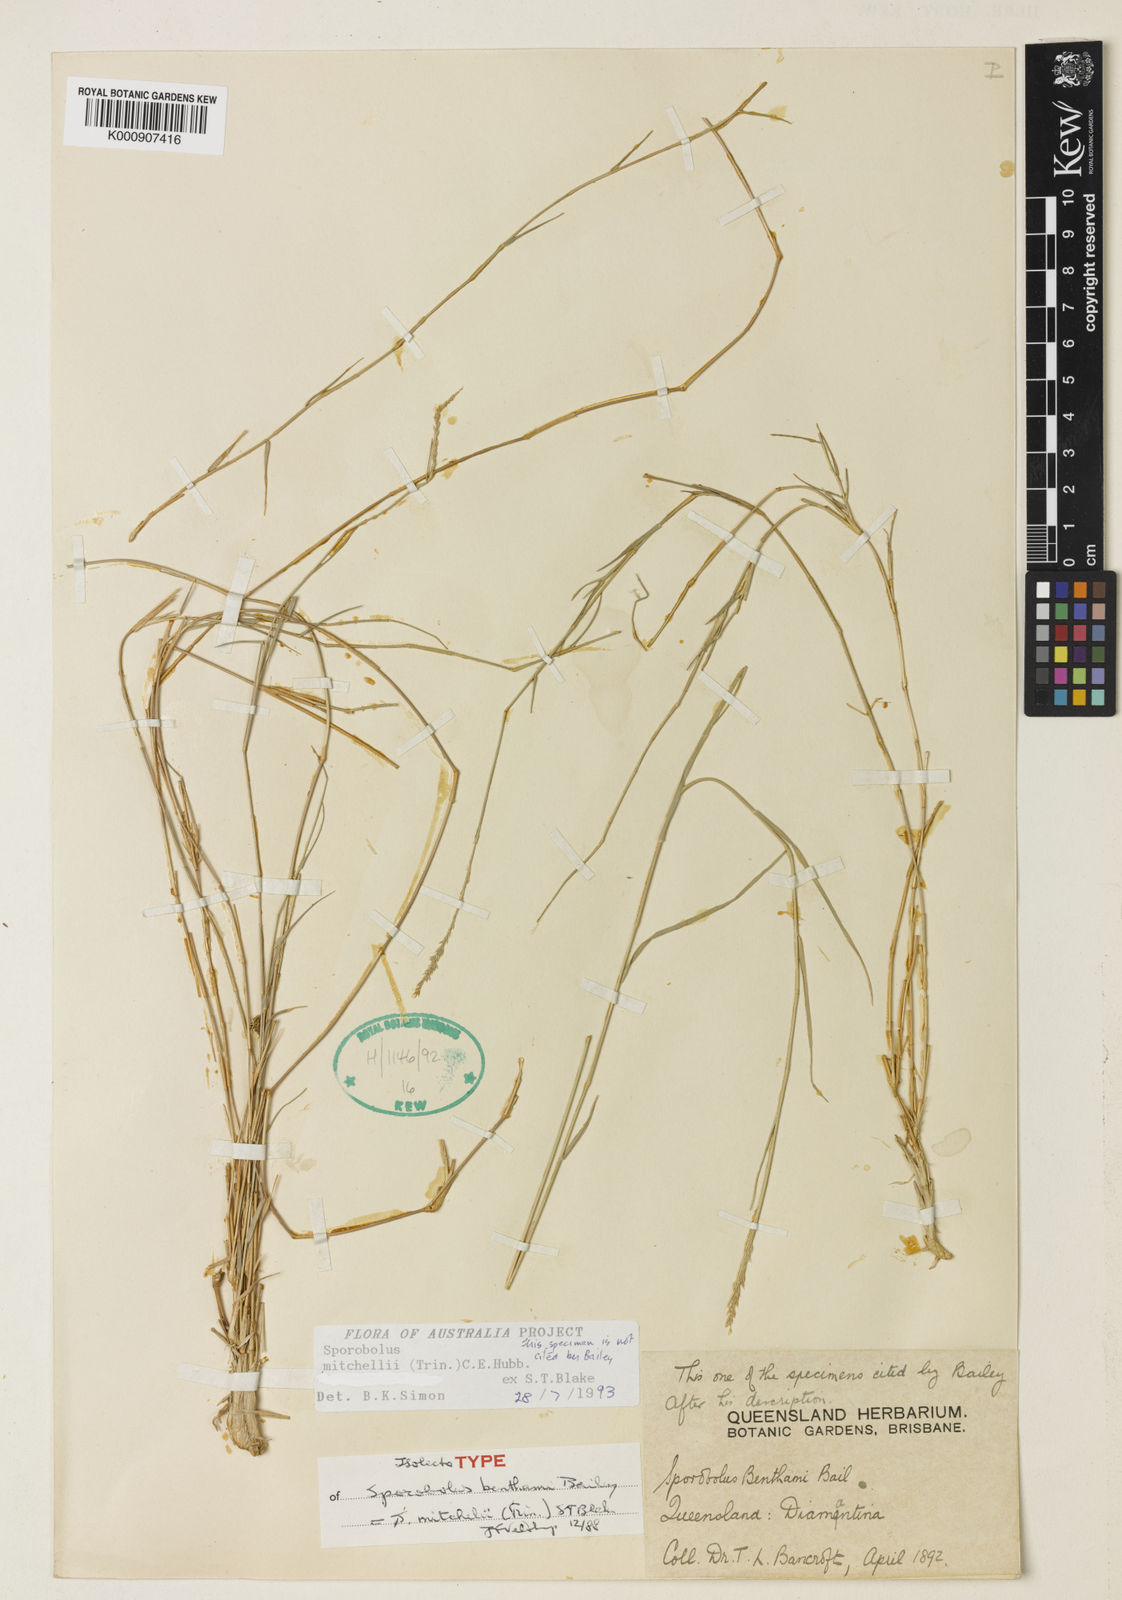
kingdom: Plantae
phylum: Tracheophyta
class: Liliopsida
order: Poales
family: Poaceae
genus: Sporobolus
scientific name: Sporobolus mitchellii
